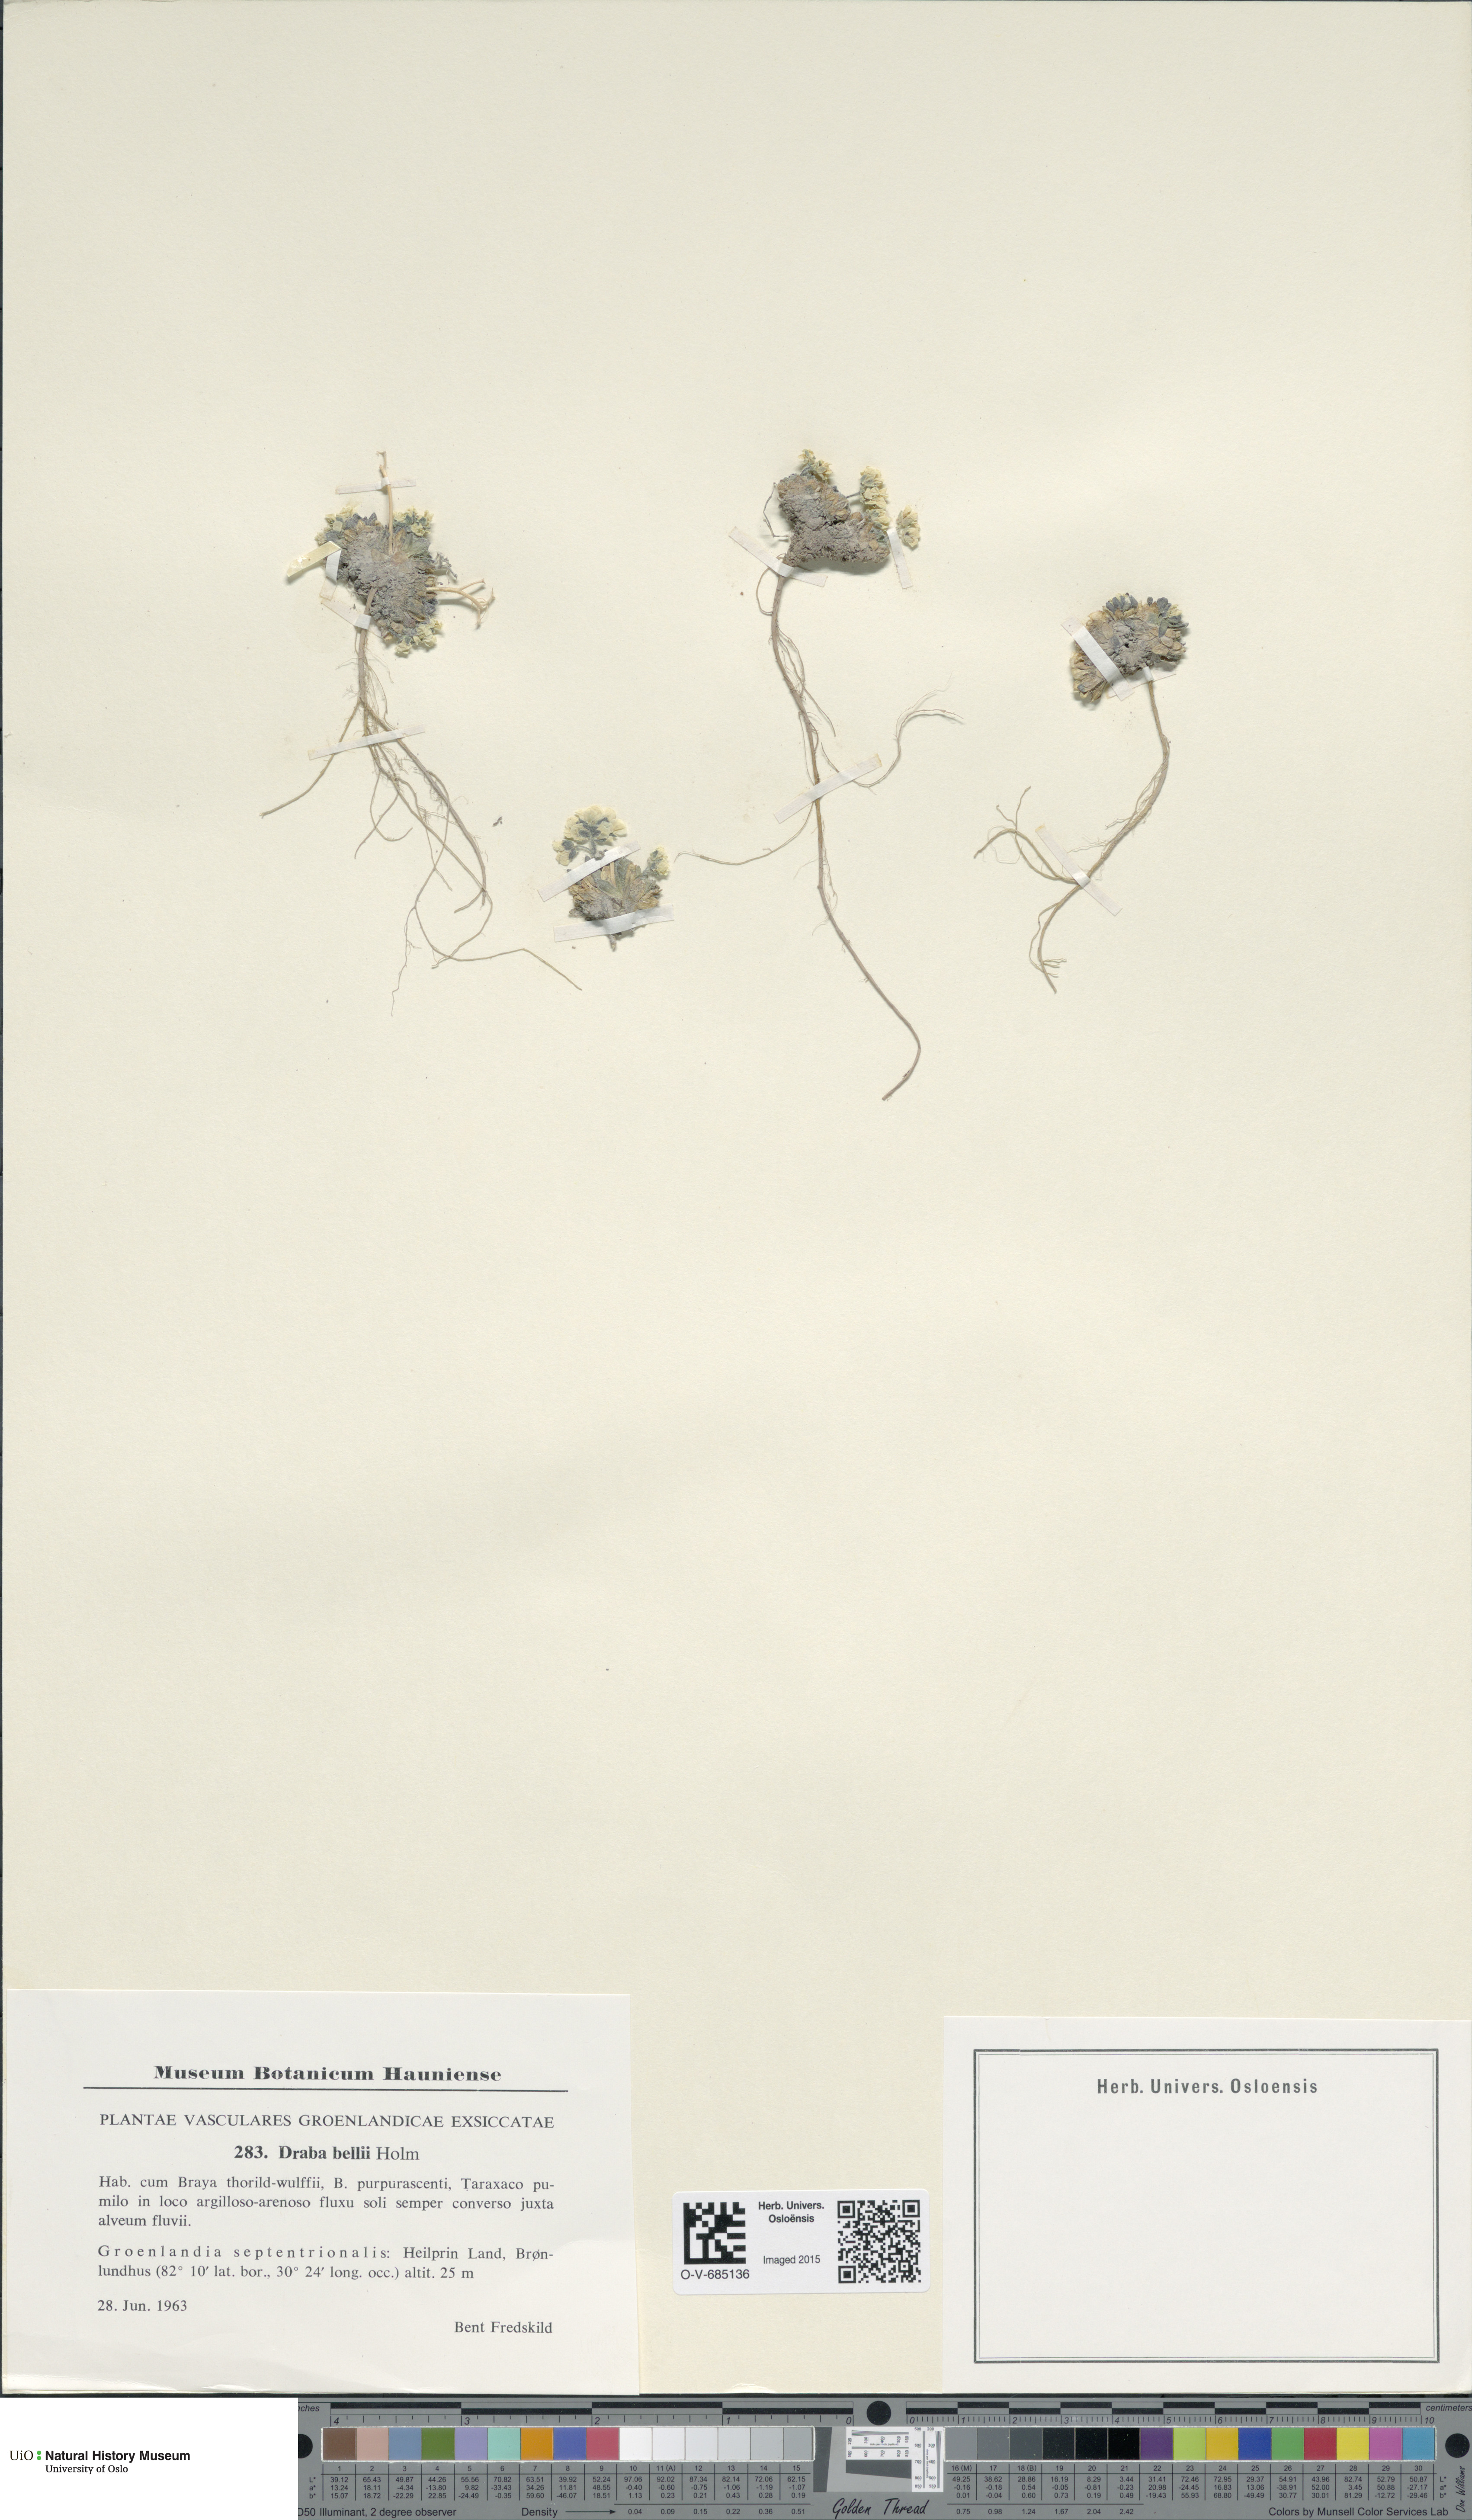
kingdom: Plantae
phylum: Tracheophyta
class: Magnoliopsida
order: Brassicales
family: Brassicaceae
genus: Draba
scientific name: Draba corymbosa
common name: Cushion whitlow-grass
